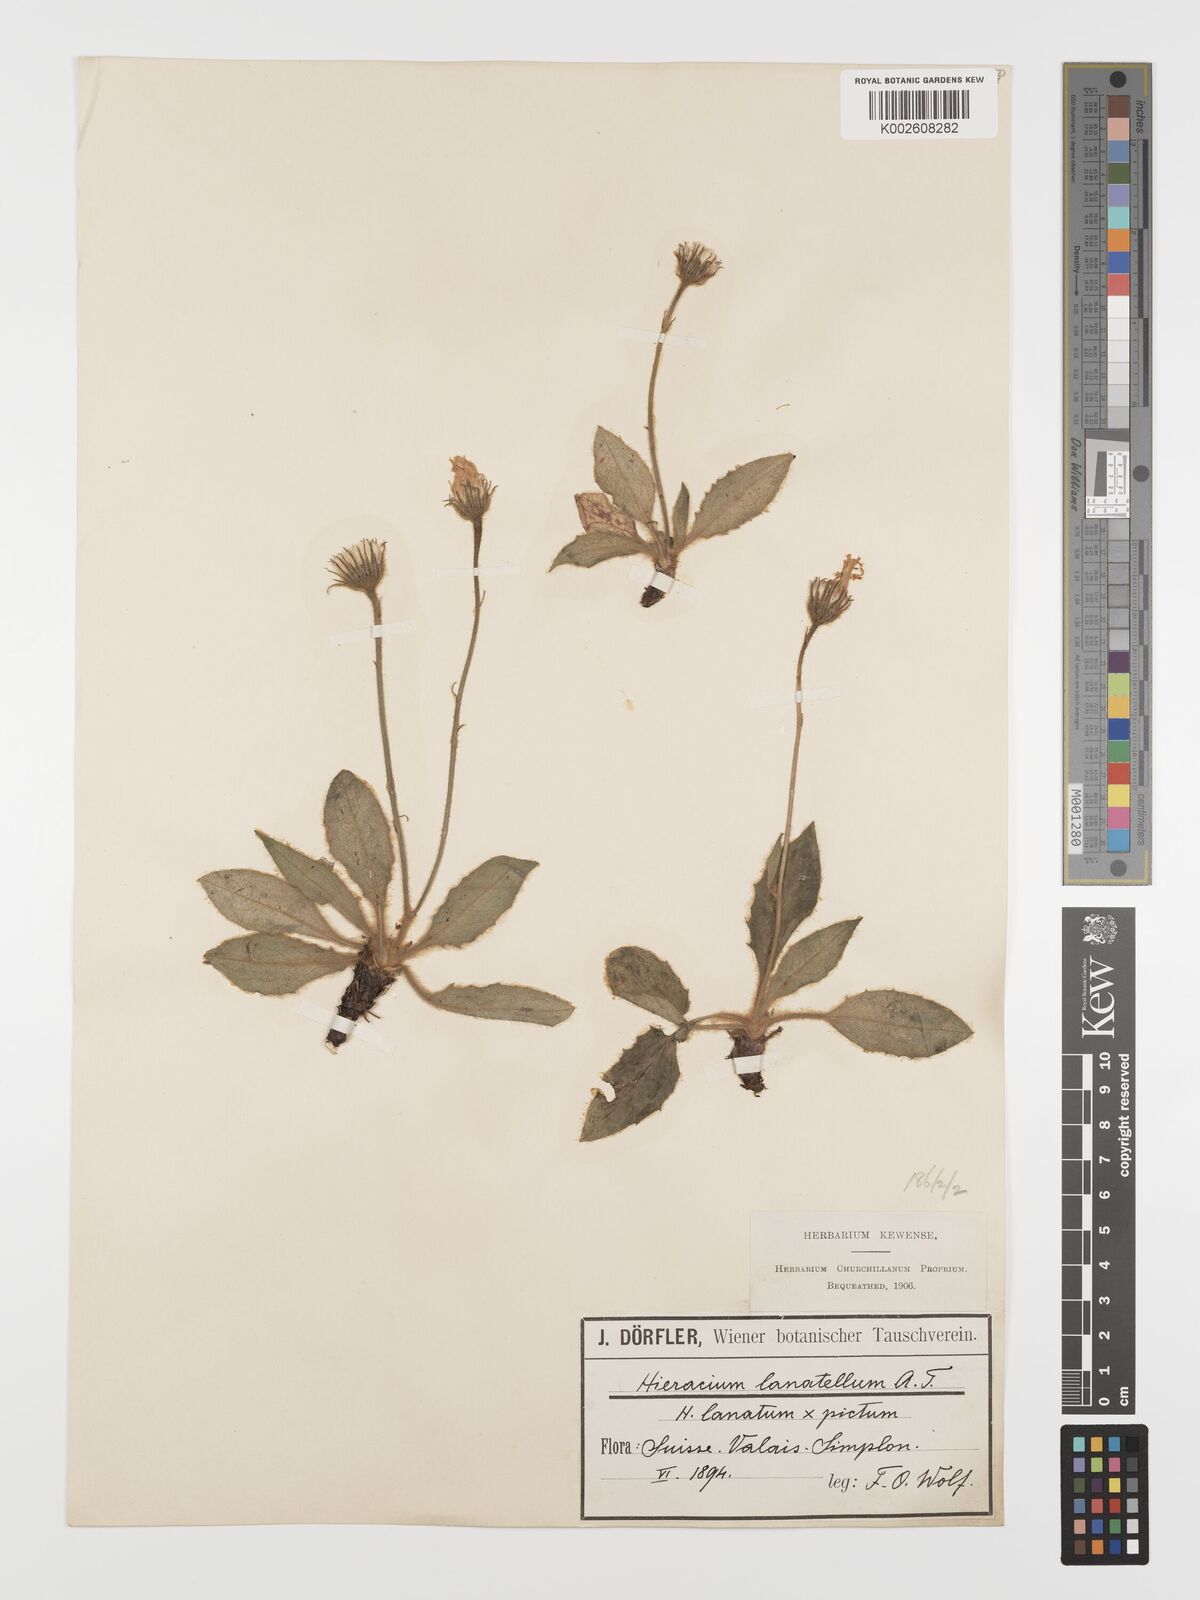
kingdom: Plantae
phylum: Tracheophyta
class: Magnoliopsida
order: Asterales
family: Asteraceae
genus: Hieracium
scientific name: Hieracium pulchellum
